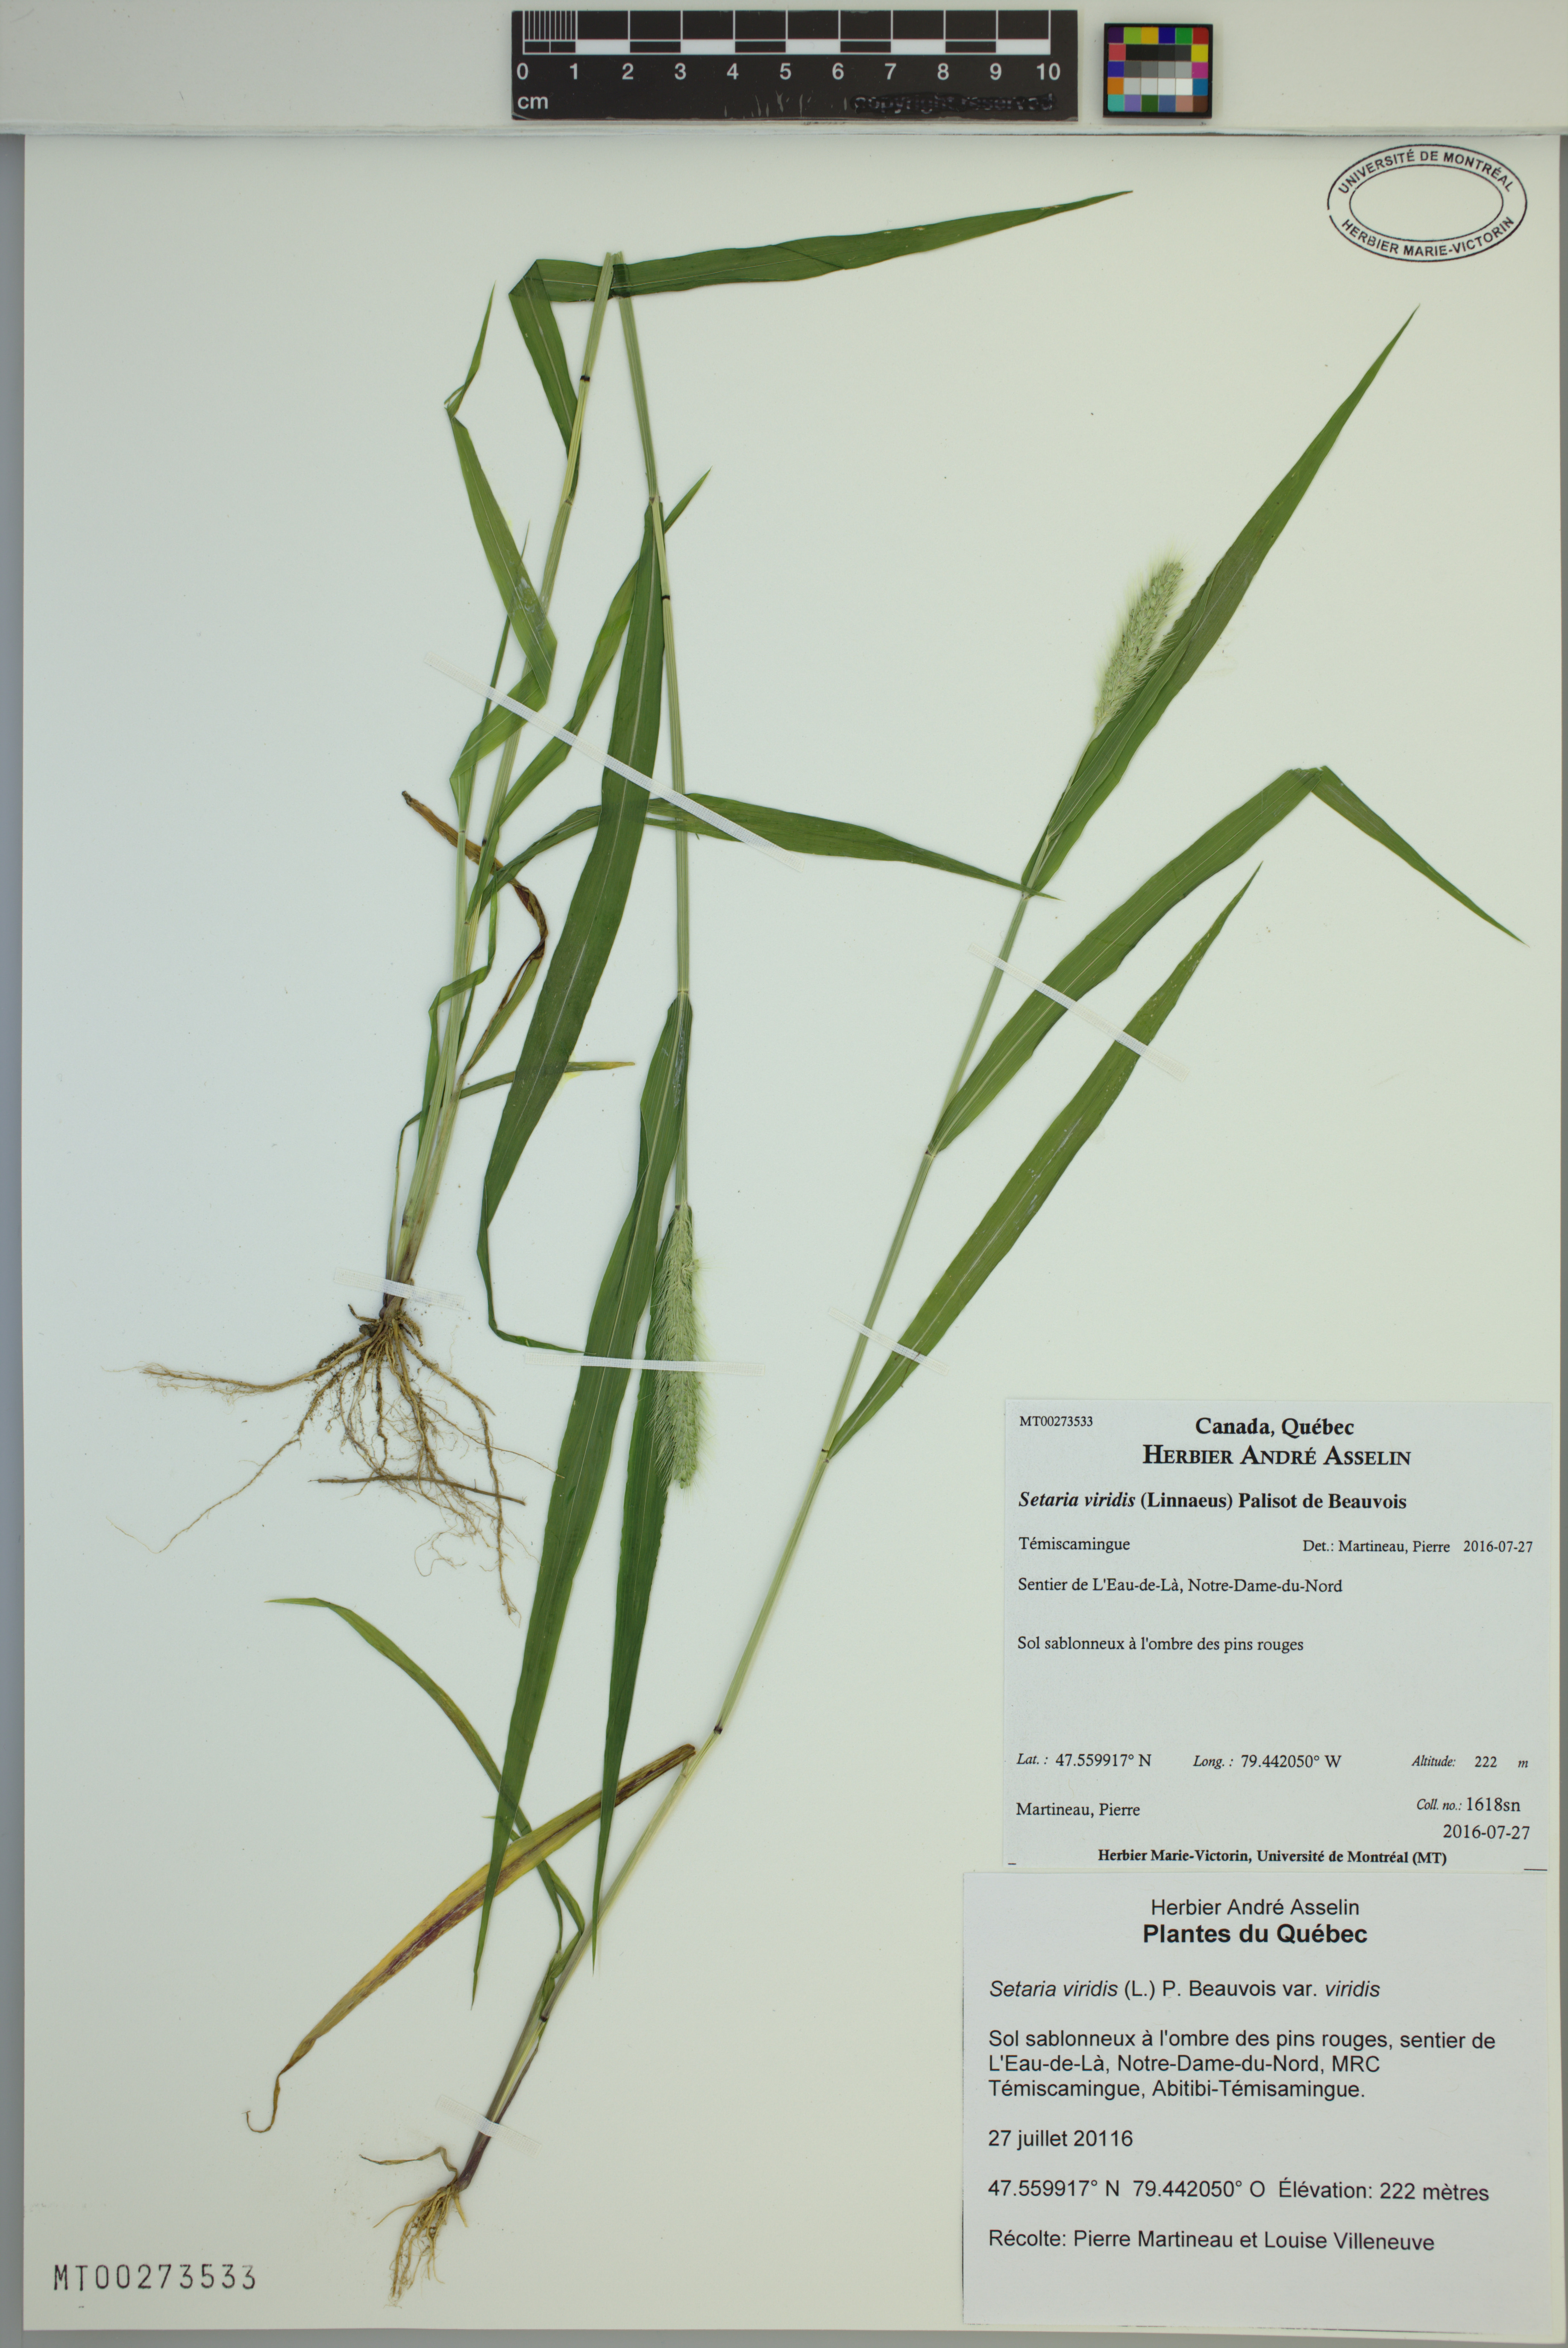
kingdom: Plantae
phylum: Tracheophyta
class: Liliopsida
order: Poales
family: Poaceae
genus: Setaria
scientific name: Setaria viridis
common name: Green bristlegrass
